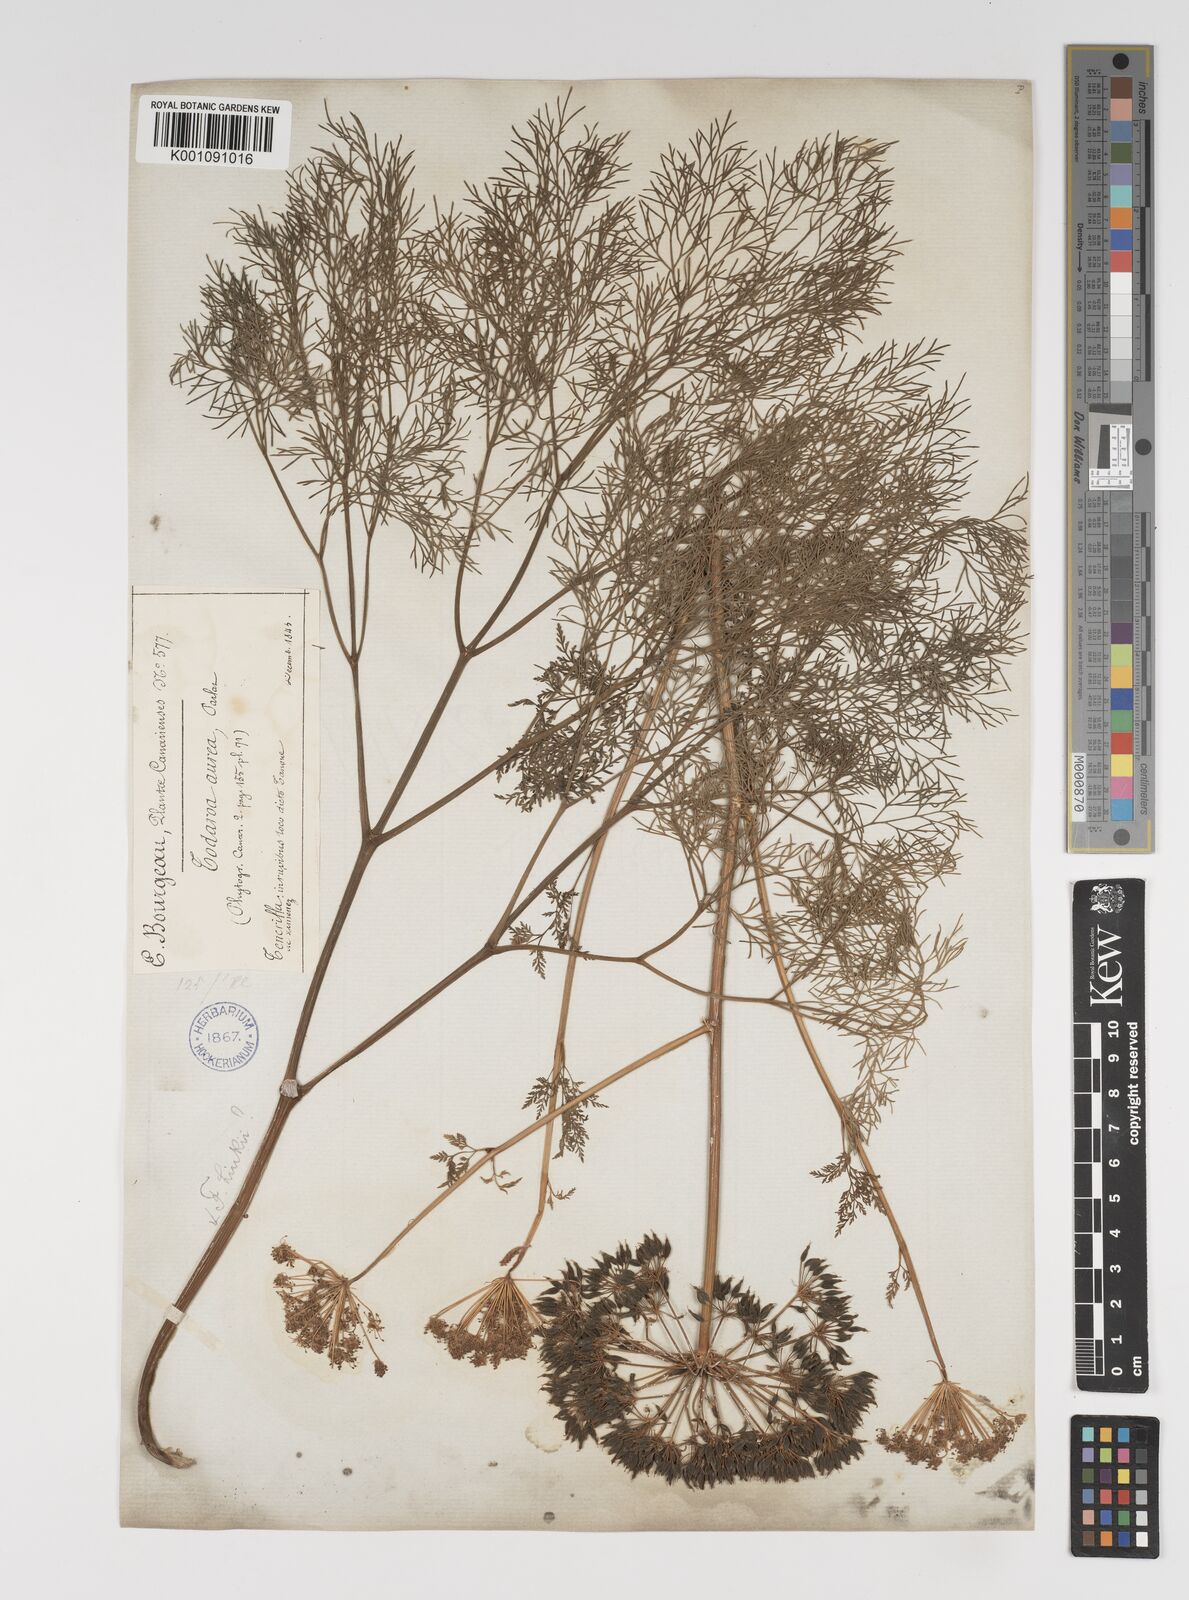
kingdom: Plantae
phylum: Tracheophyta
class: Magnoliopsida
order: Apiales
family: Apiaceae
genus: Todaroa
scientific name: Todaroa aurea
